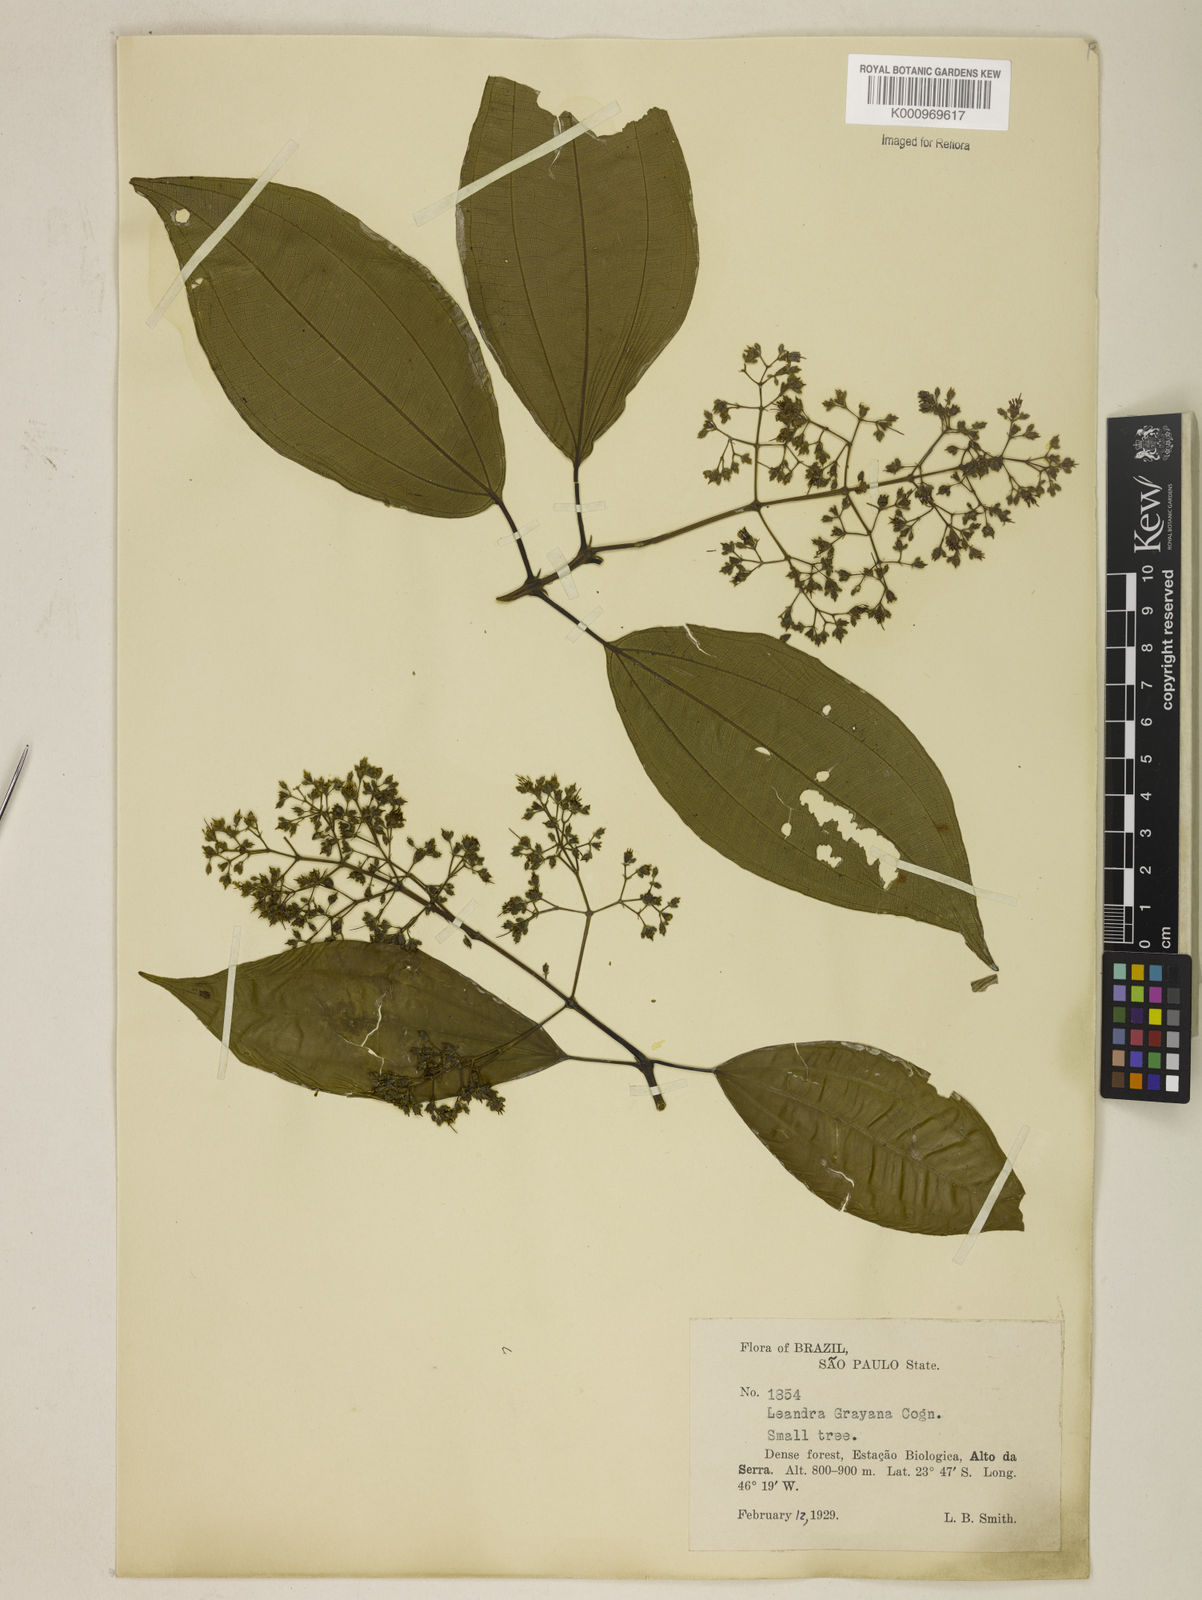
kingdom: Plantae
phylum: Tracheophyta
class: Magnoliopsida
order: Myrtales
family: Melastomataceae
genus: Miconia
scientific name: Miconia leagrayana
